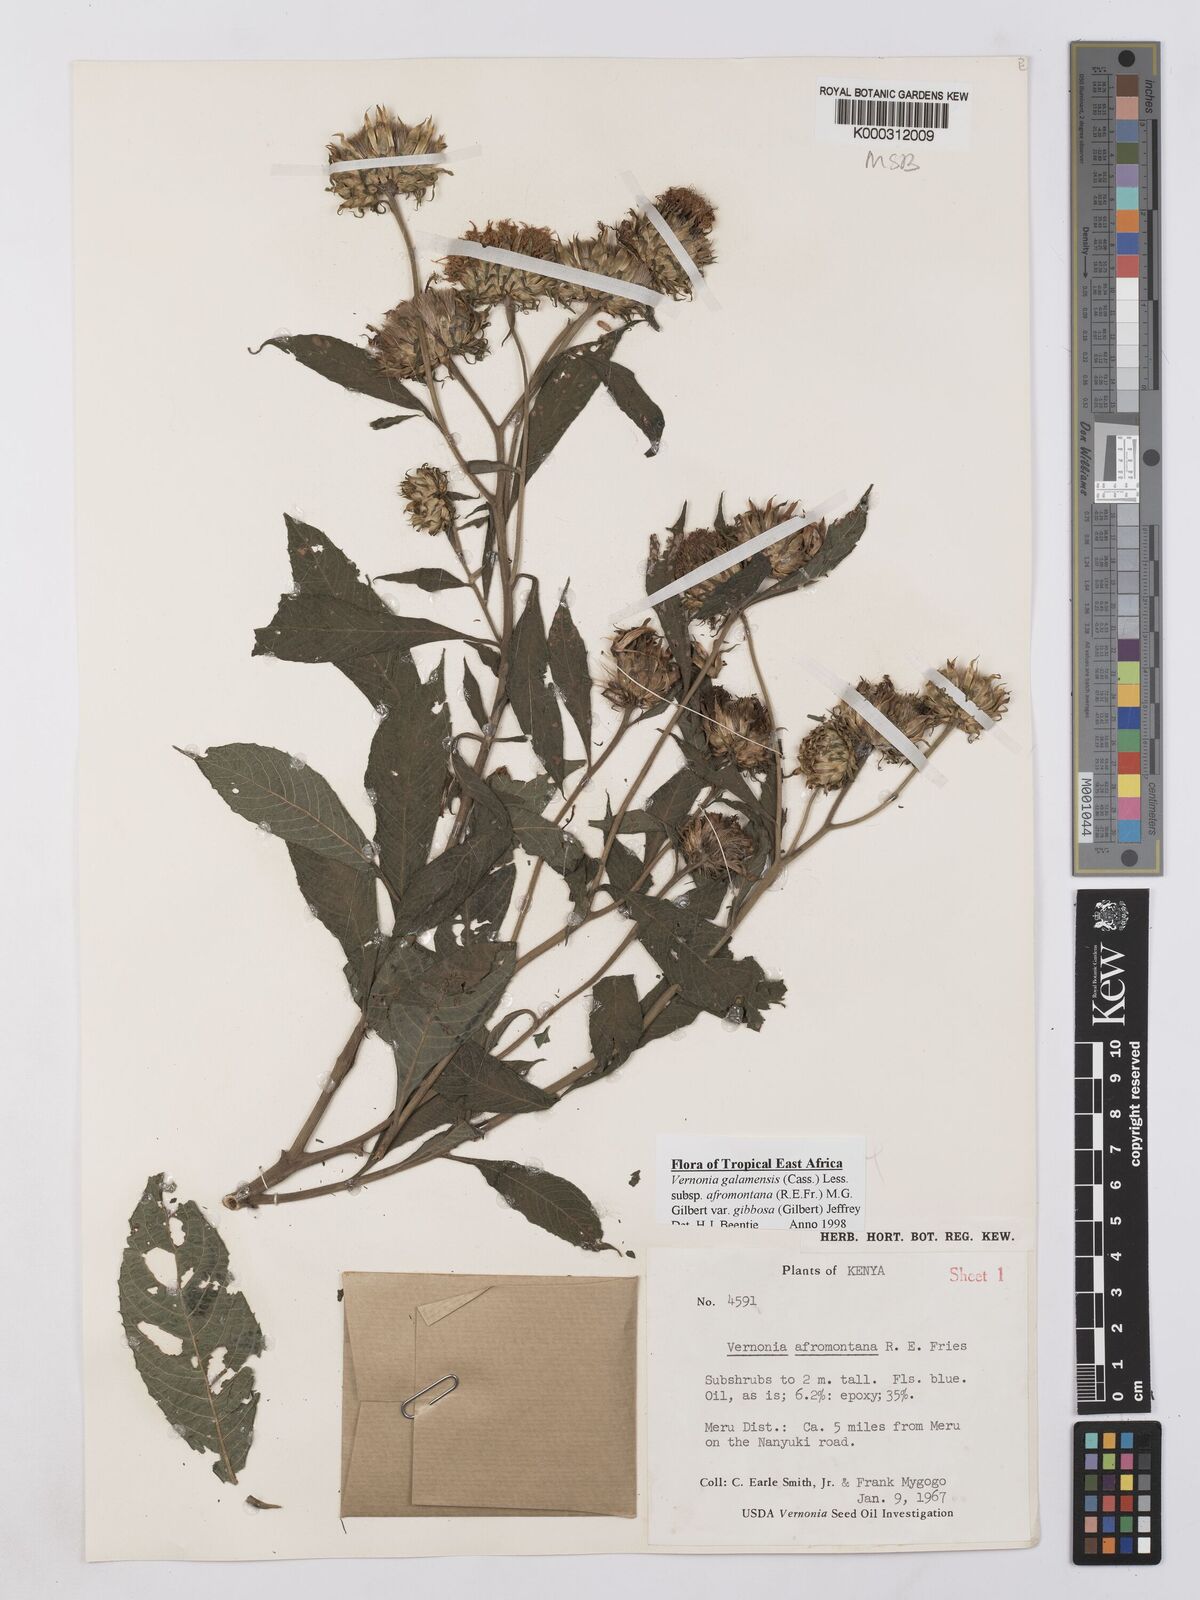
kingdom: Plantae
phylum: Tracheophyta
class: Magnoliopsida
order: Asterales
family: Asteraceae
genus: Vernonia
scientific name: Vernonia galamensis
